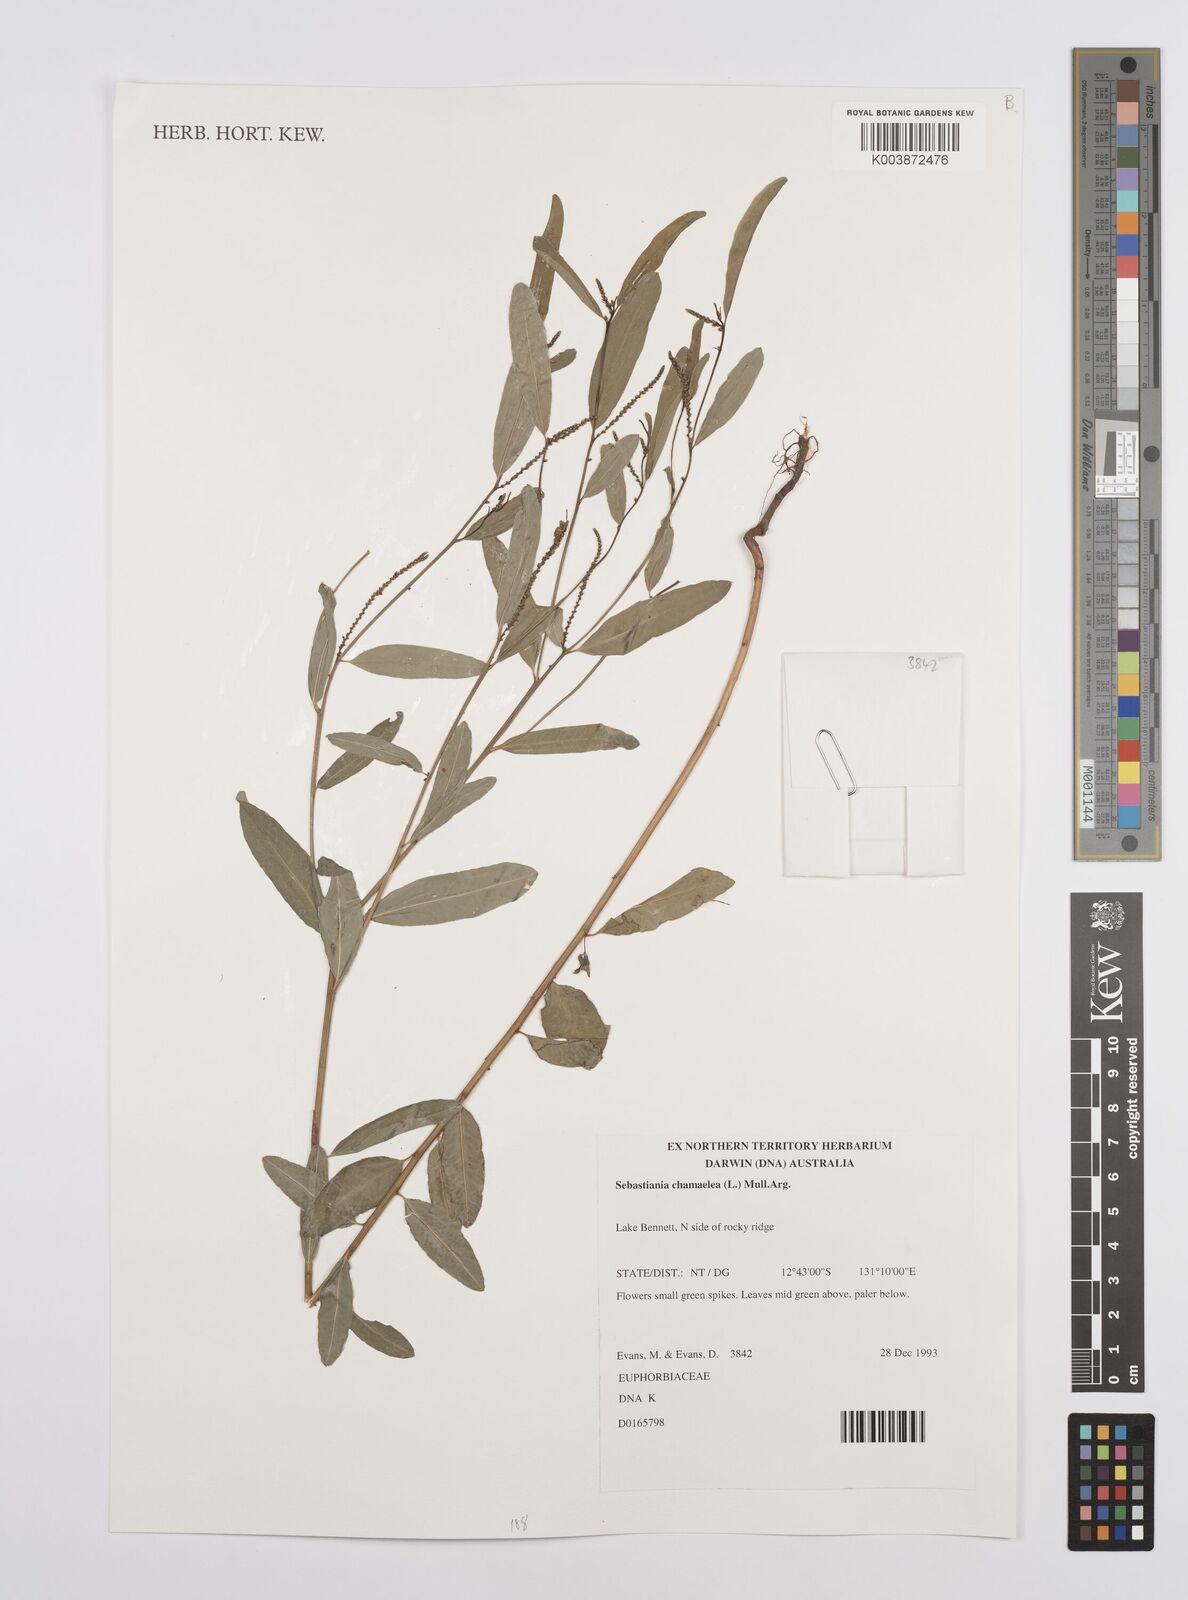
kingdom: Plantae
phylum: Tracheophyta
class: Magnoliopsida
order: Malpighiales
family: Euphorbiaceae
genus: Microstachys
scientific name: Microstachys chamaelea
